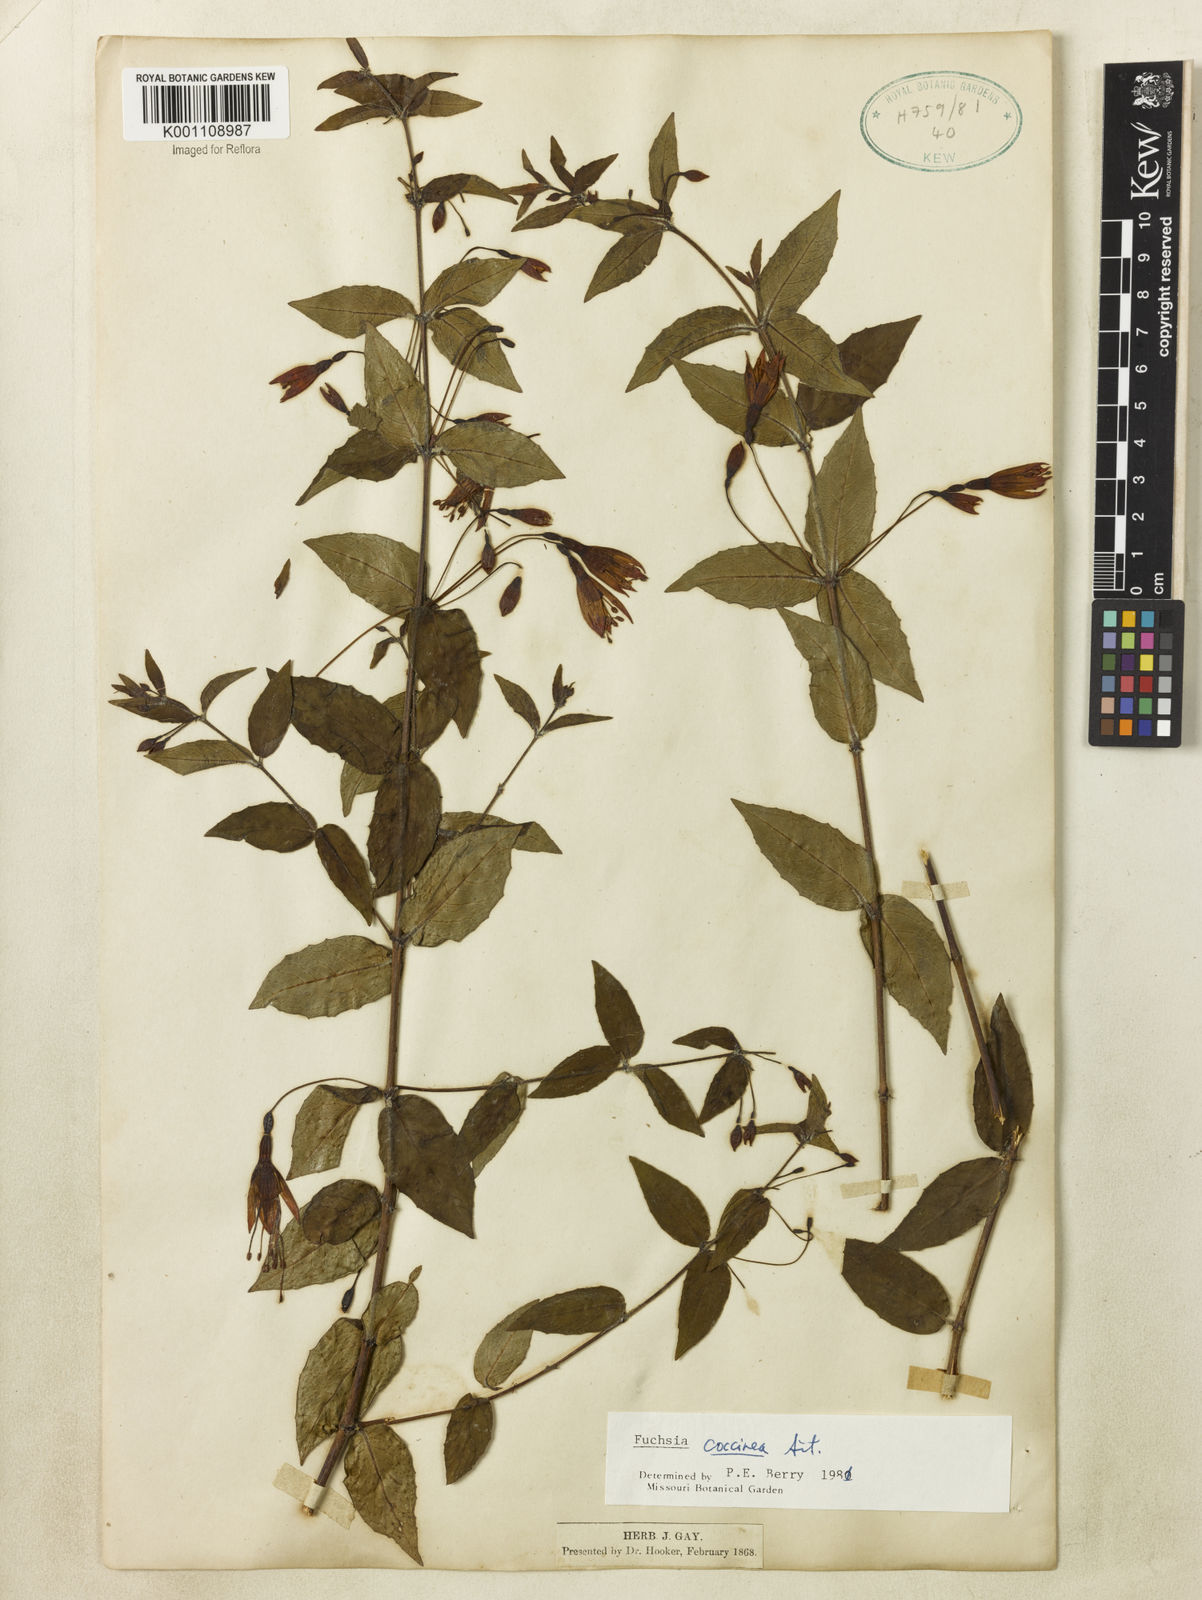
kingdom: Plantae
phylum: Tracheophyta
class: Magnoliopsida
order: Myrtales
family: Onagraceae
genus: Fuchsia
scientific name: Fuchsia
